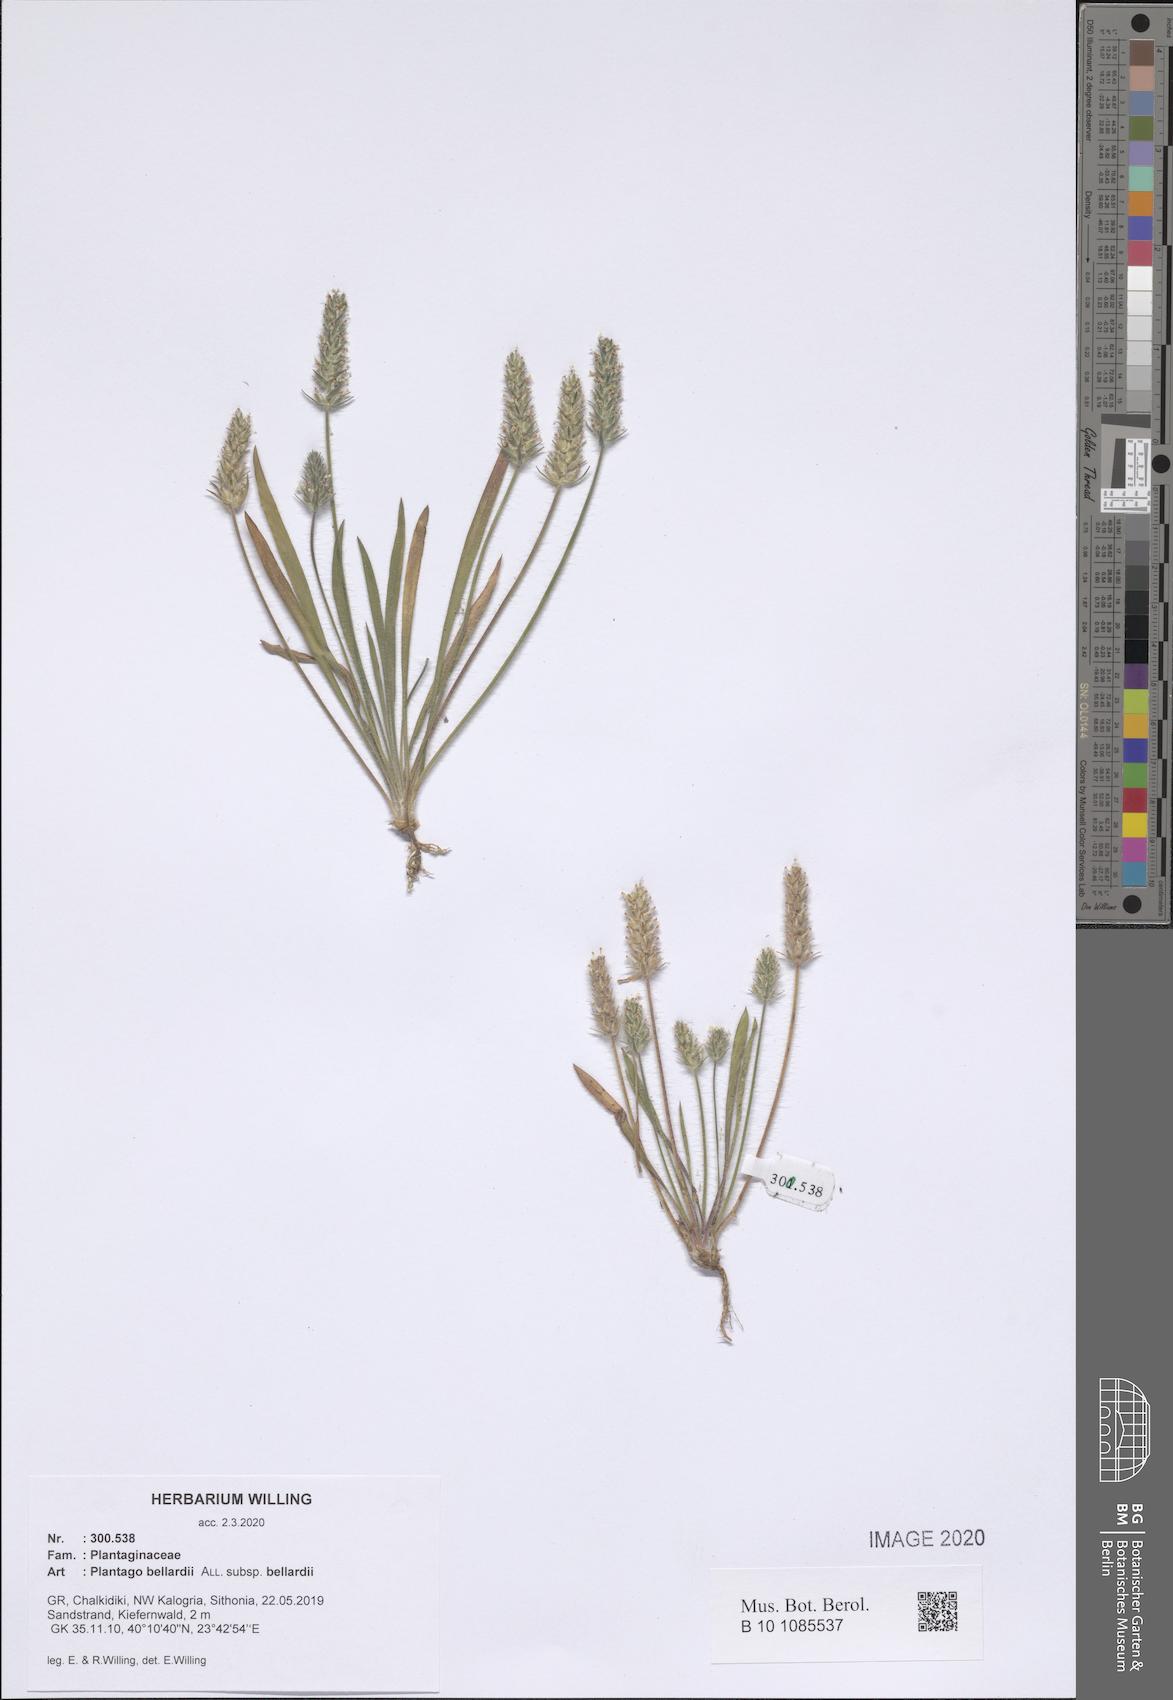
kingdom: Plantae
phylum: Tracheophyta
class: Magnoliopsida
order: Lamiales
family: Plantaginaceae
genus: Plantago
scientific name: Plantago bellardii
